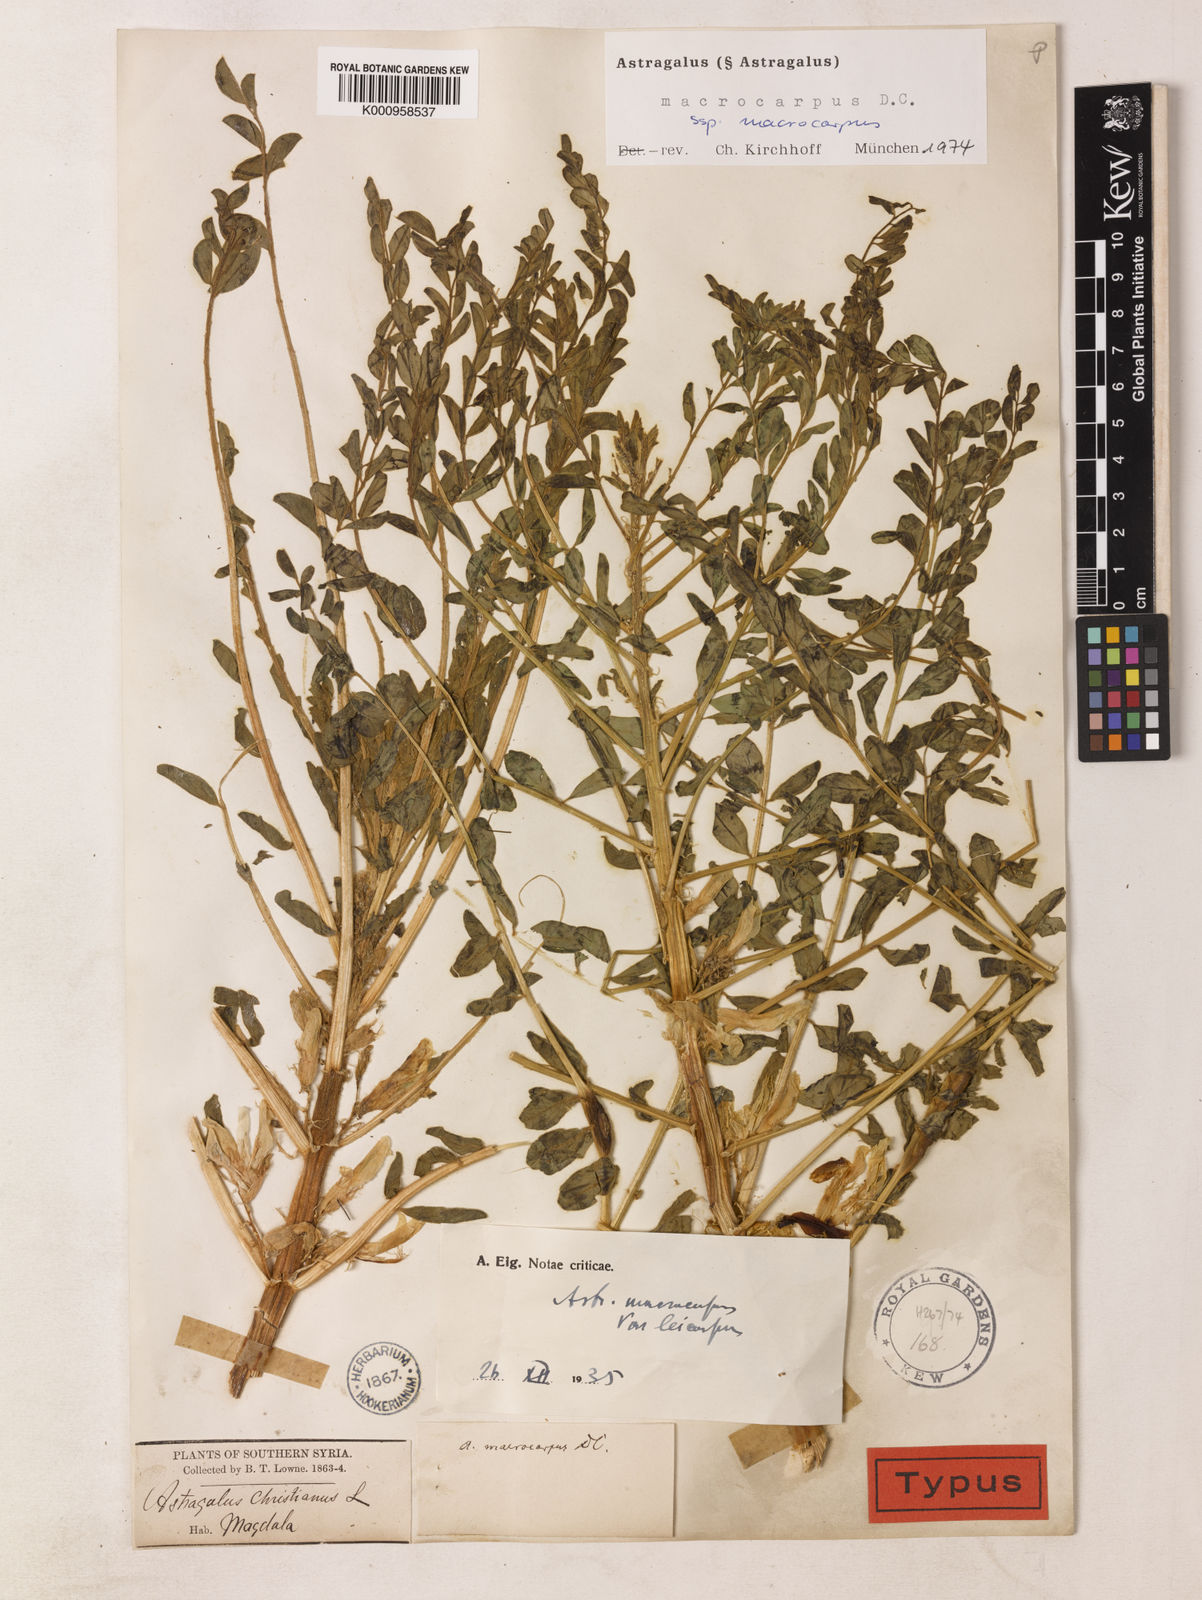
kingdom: Plantae
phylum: Tracheophyta
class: Magnoliopsida
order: Fabales
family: Fabaceae
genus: Astragalus
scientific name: Astragalus macrocarpus
